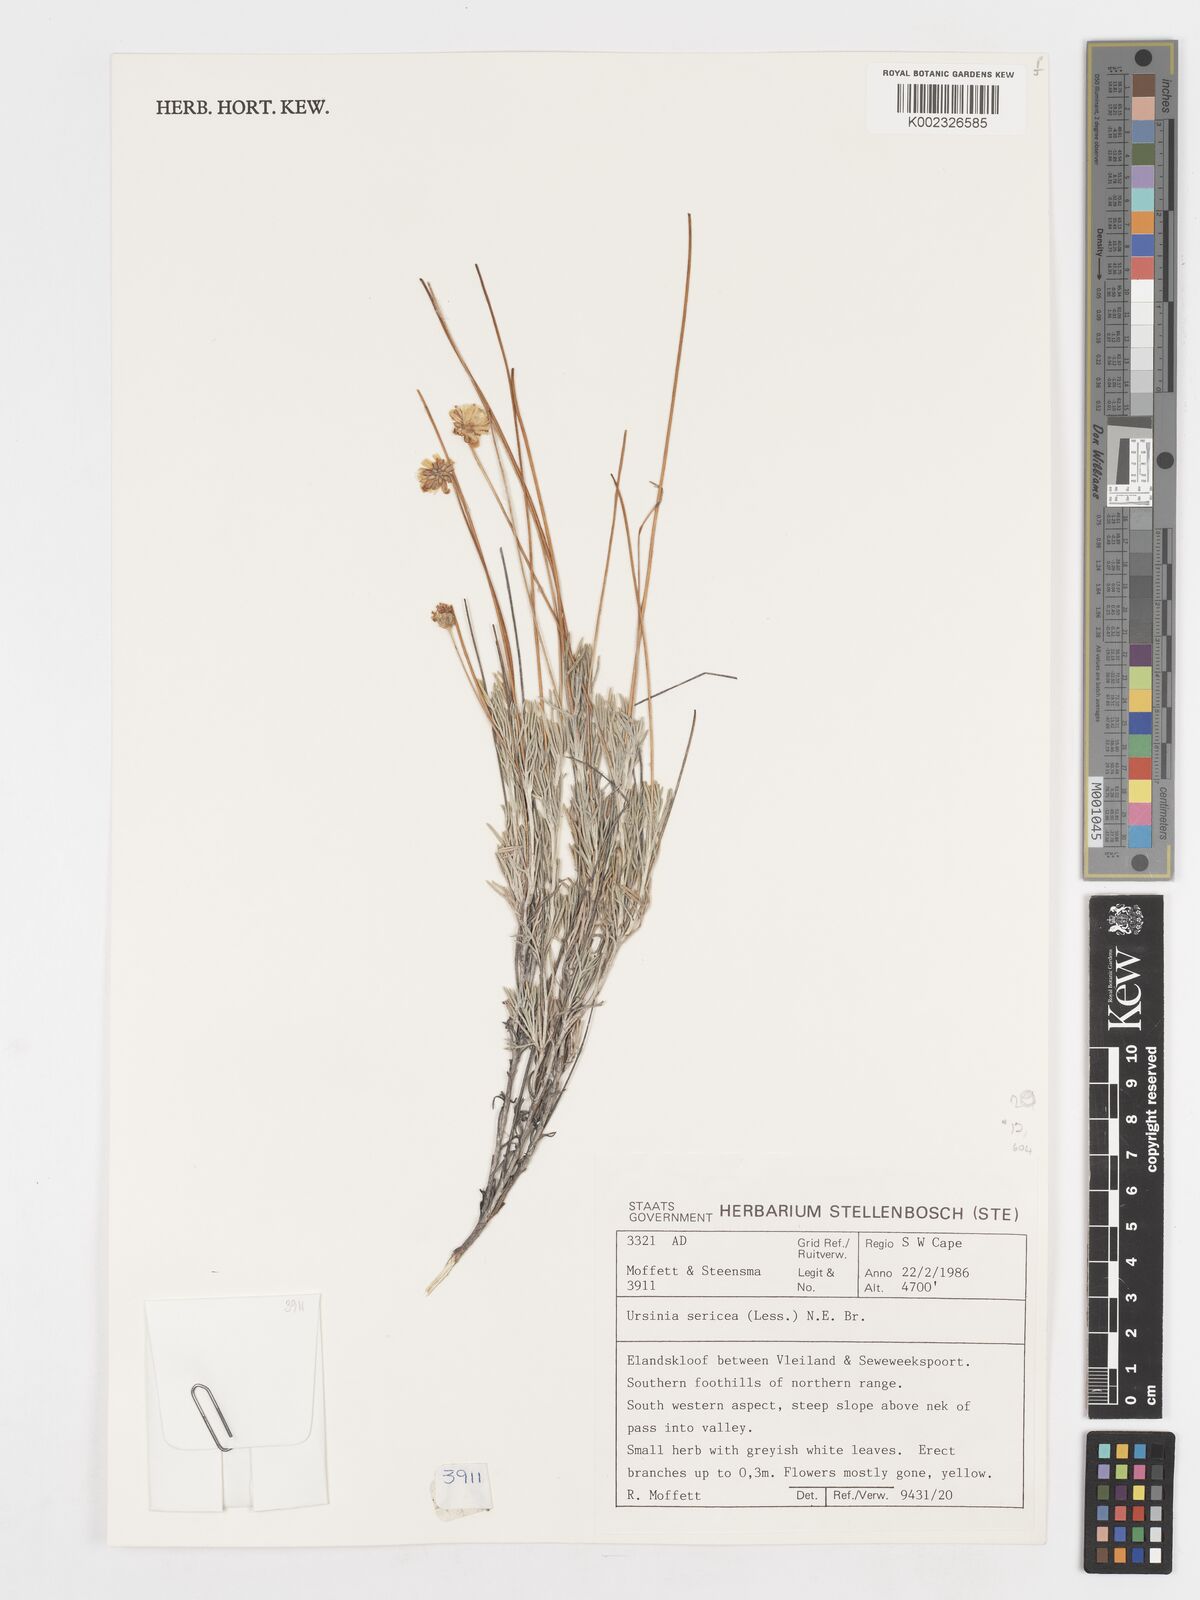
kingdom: Plantae
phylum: Tracheophyta
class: Magnoliopsida
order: Asterales
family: Asteraceae
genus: Ursinia
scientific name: Ursinia sericea
